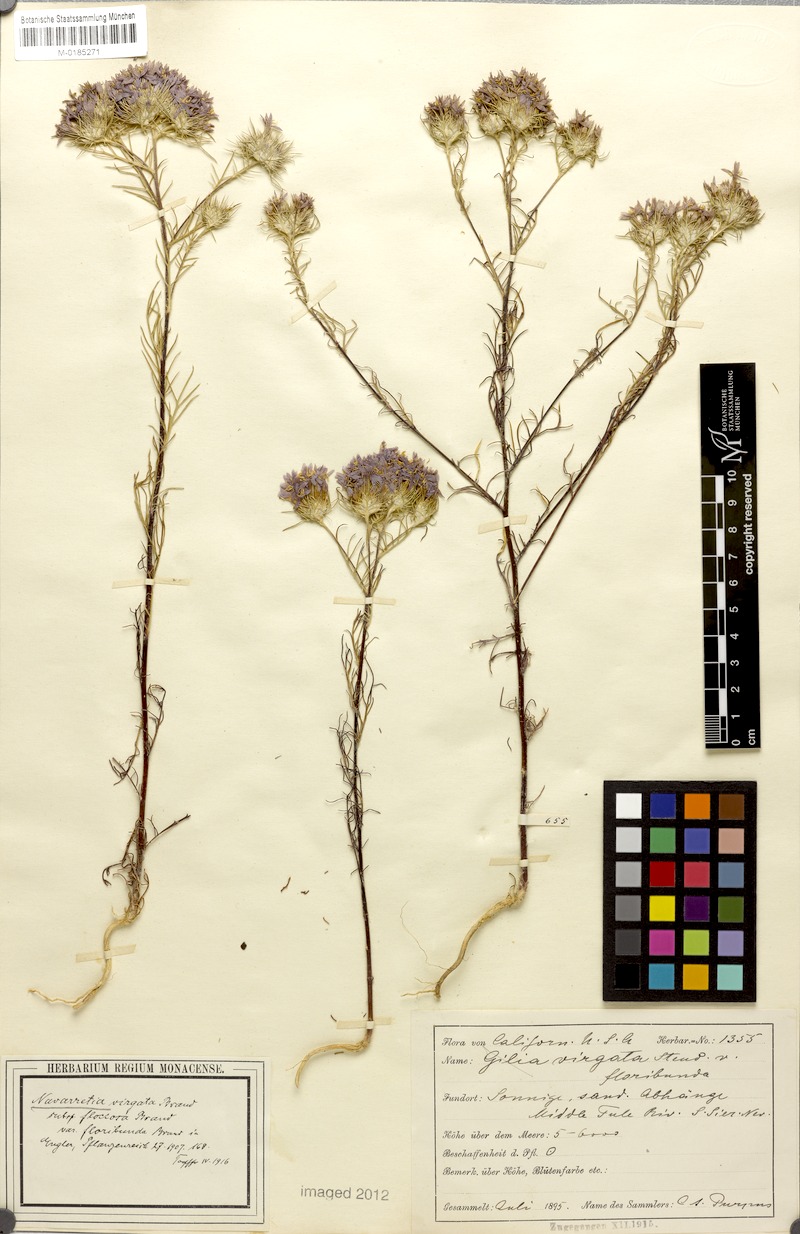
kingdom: Plantae
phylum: Tracheophyta
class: Magnoliopsida
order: Ericales
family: Polemoniaceae
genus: Eriastrum
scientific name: Eriastrum virgatum
